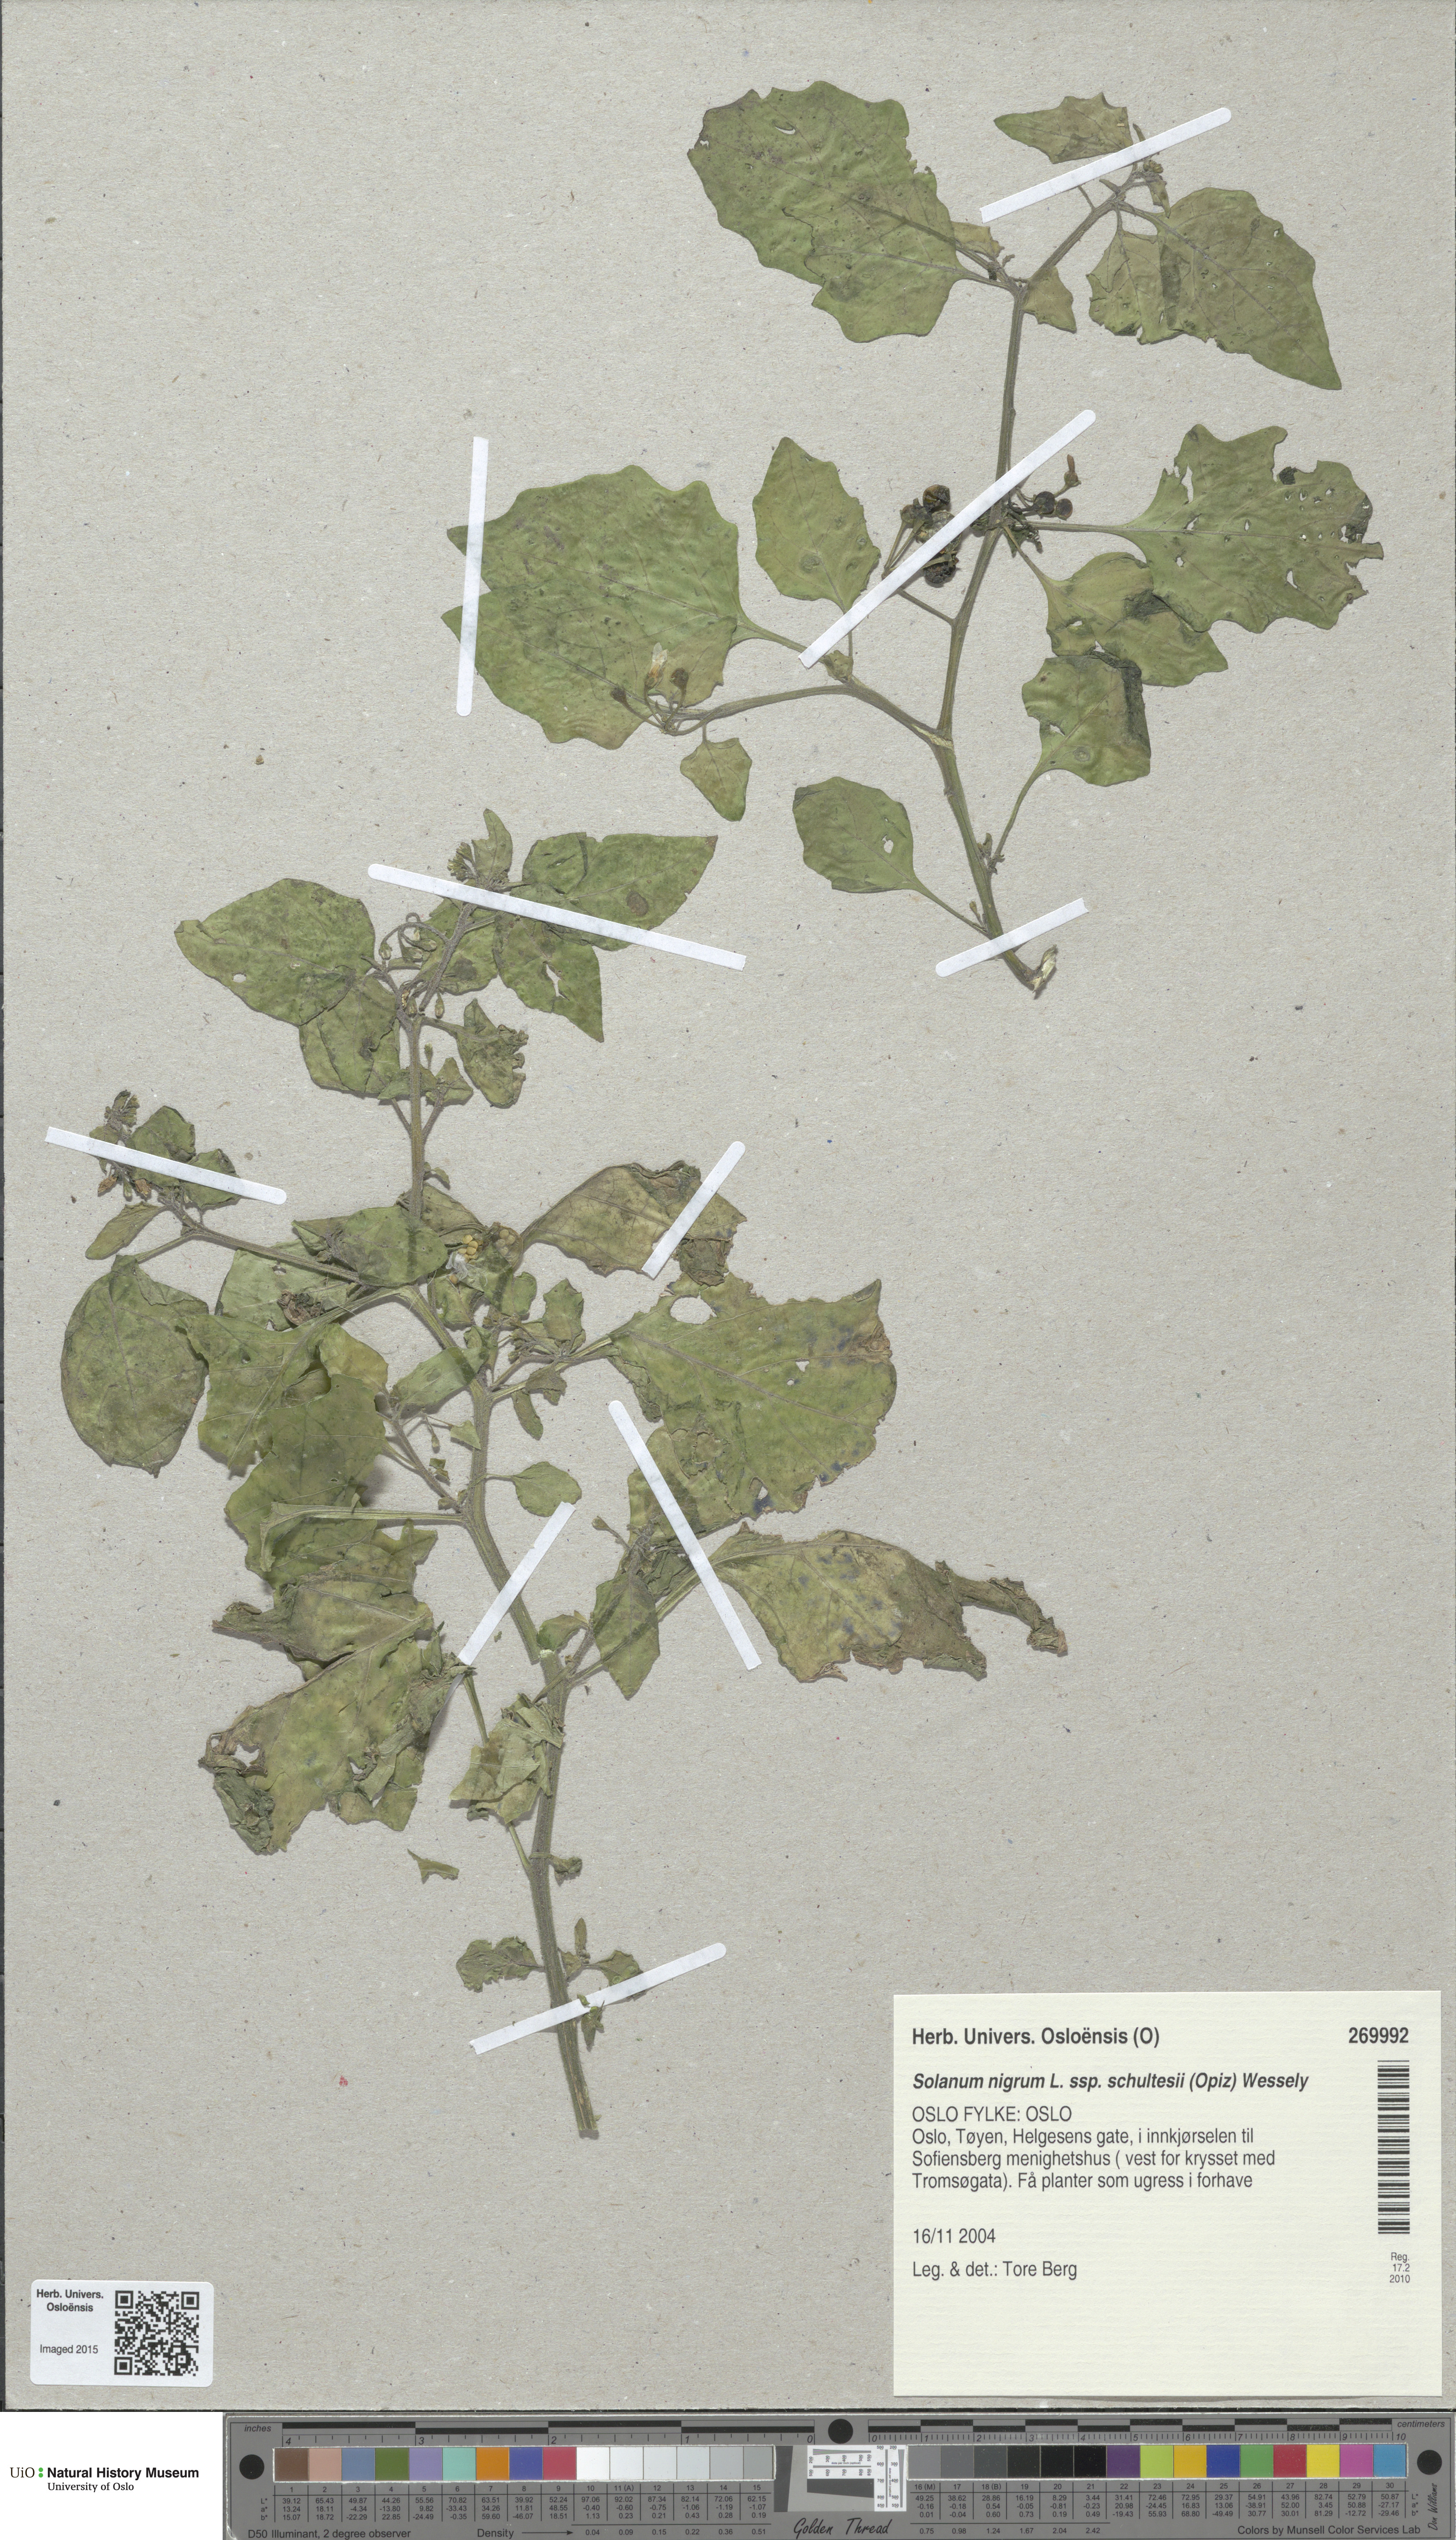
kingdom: Plantae
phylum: Tracheophyta
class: Magnoliopsida
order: Solanales
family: Solanaceae
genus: Solanum
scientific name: Solanum decipiens
